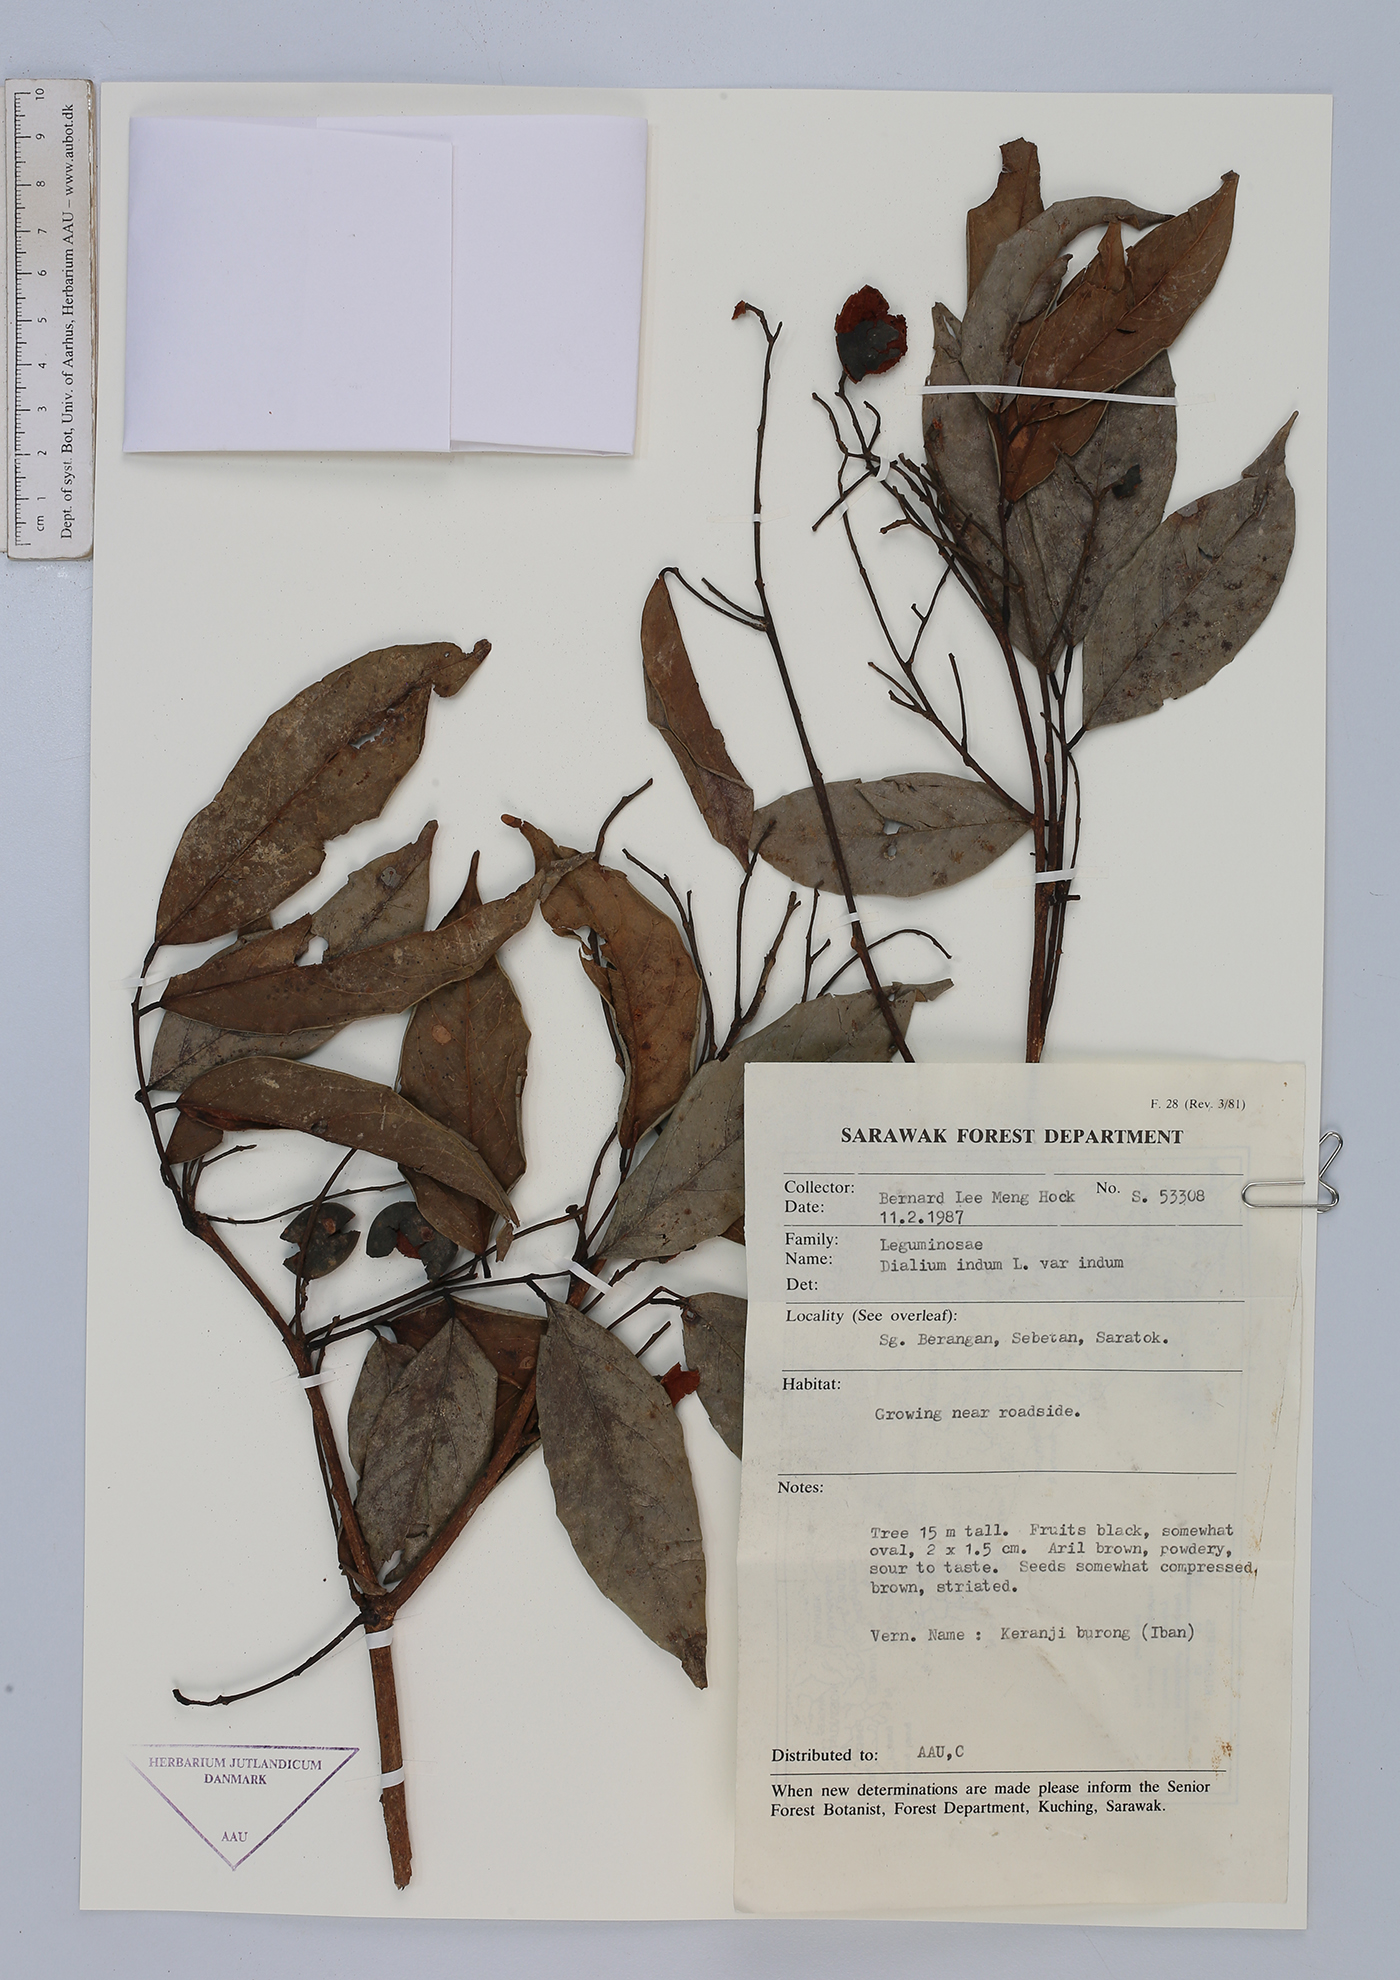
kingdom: Plantae
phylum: Tracheophyta
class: Magnoliopsida
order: Fabales
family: Fabaceae
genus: Dialium
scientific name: Dialium indum
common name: Tamarind-plum
